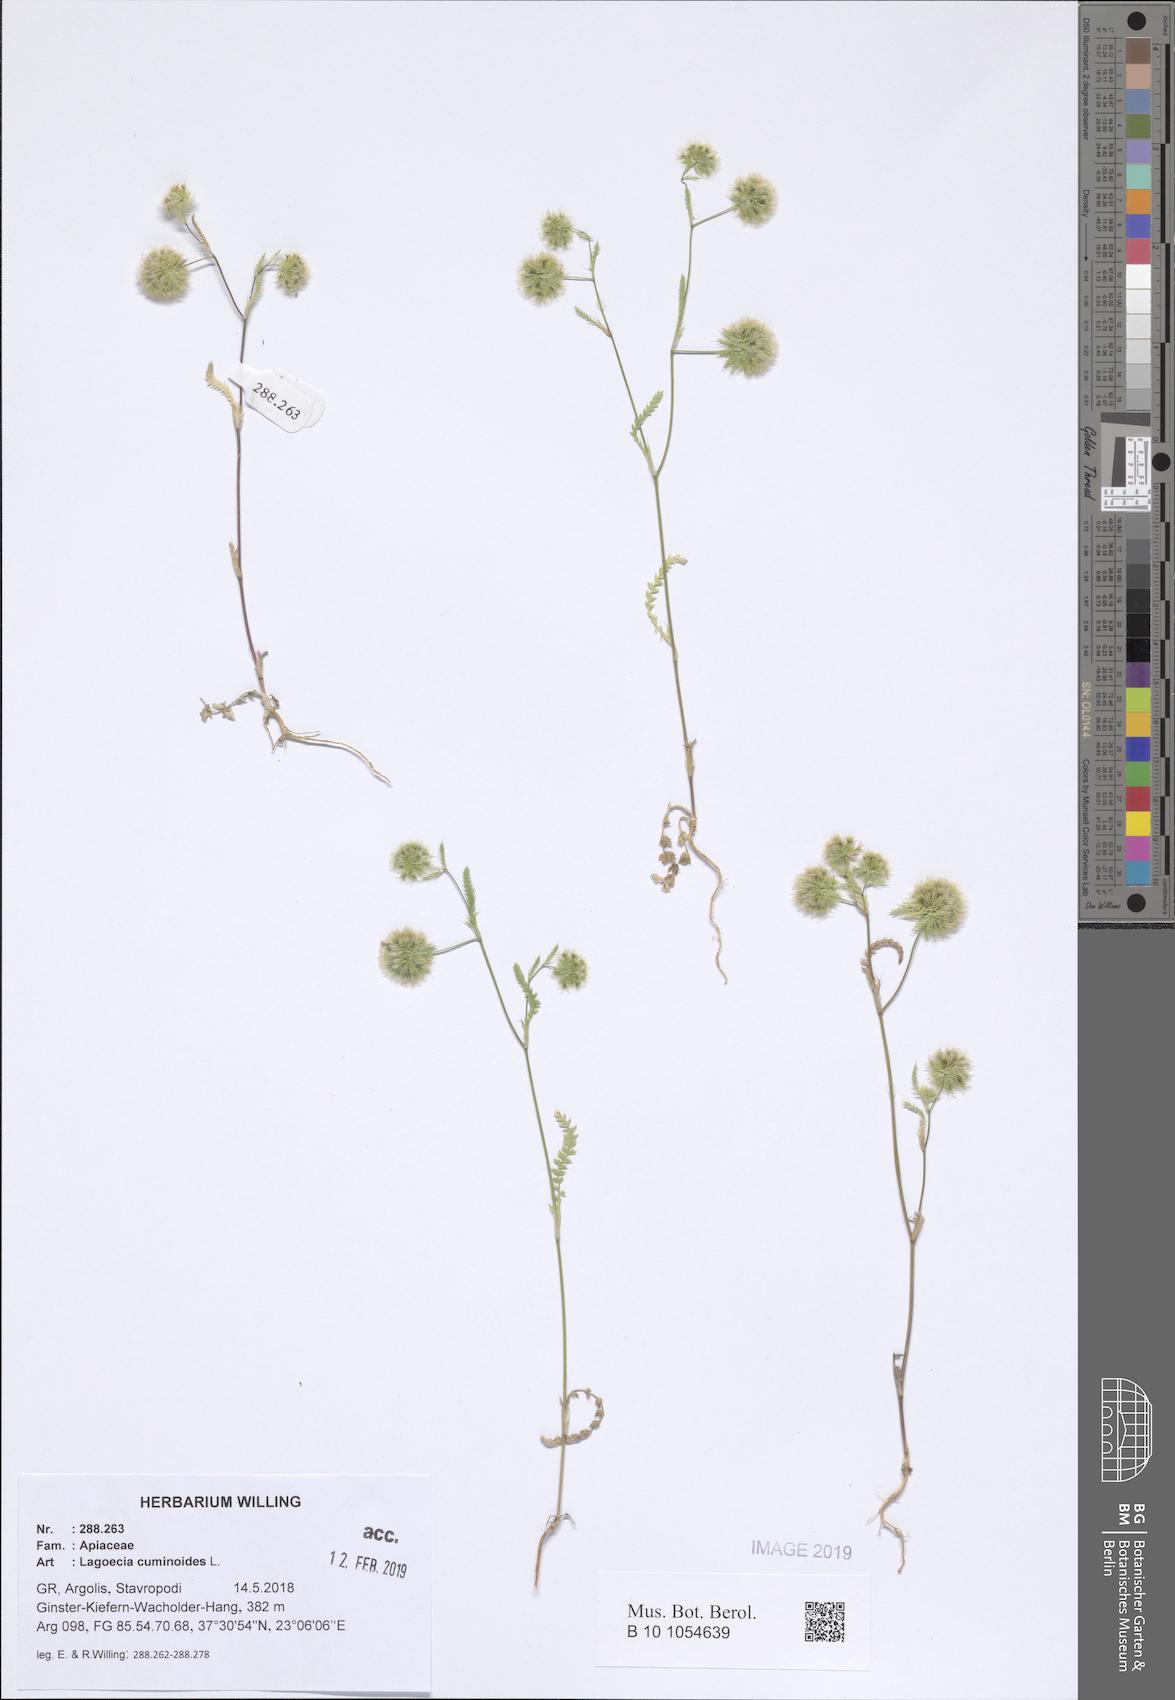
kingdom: Plantae
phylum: Tracheophyta
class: Magnoliopsida
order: Apiales
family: Apiaceae
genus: Lagoecia
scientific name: Lagoecia cuminoides
